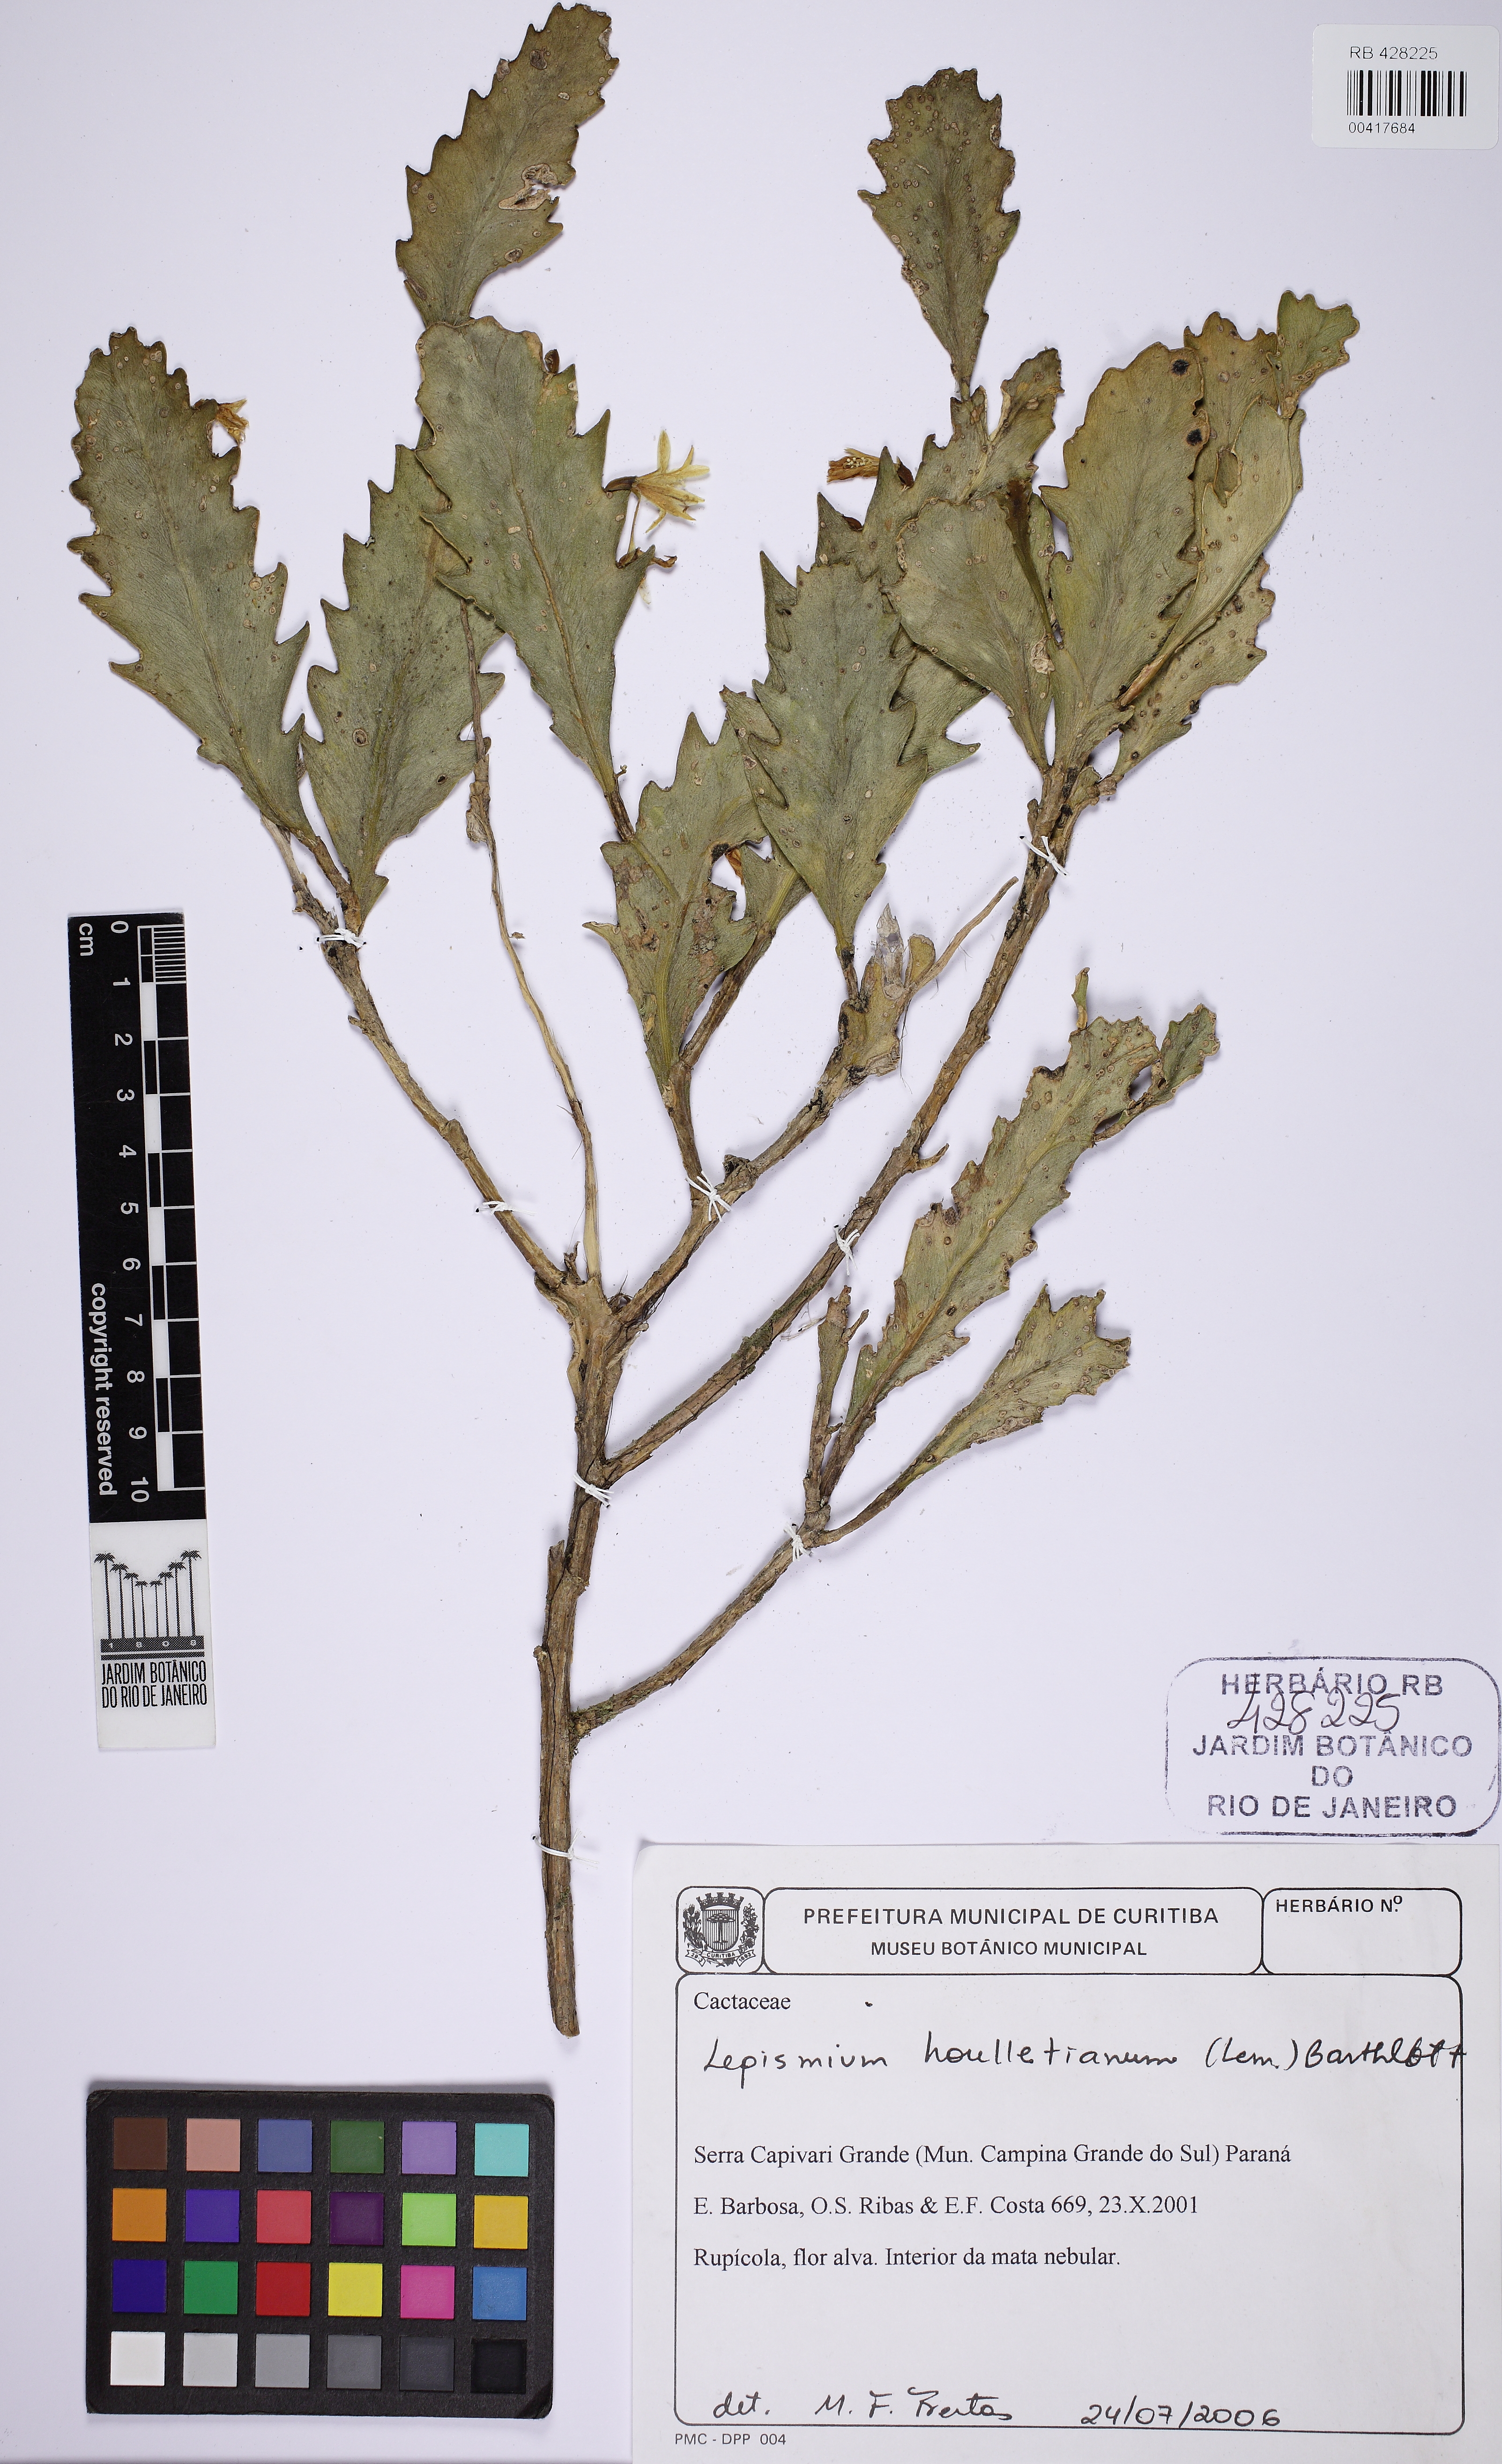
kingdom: Plantae
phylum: Tracheophyta
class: Magnoliopsida
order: Caryophyllales
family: Cactaceae
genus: Lepismium
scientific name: Lepismium houlletianum
